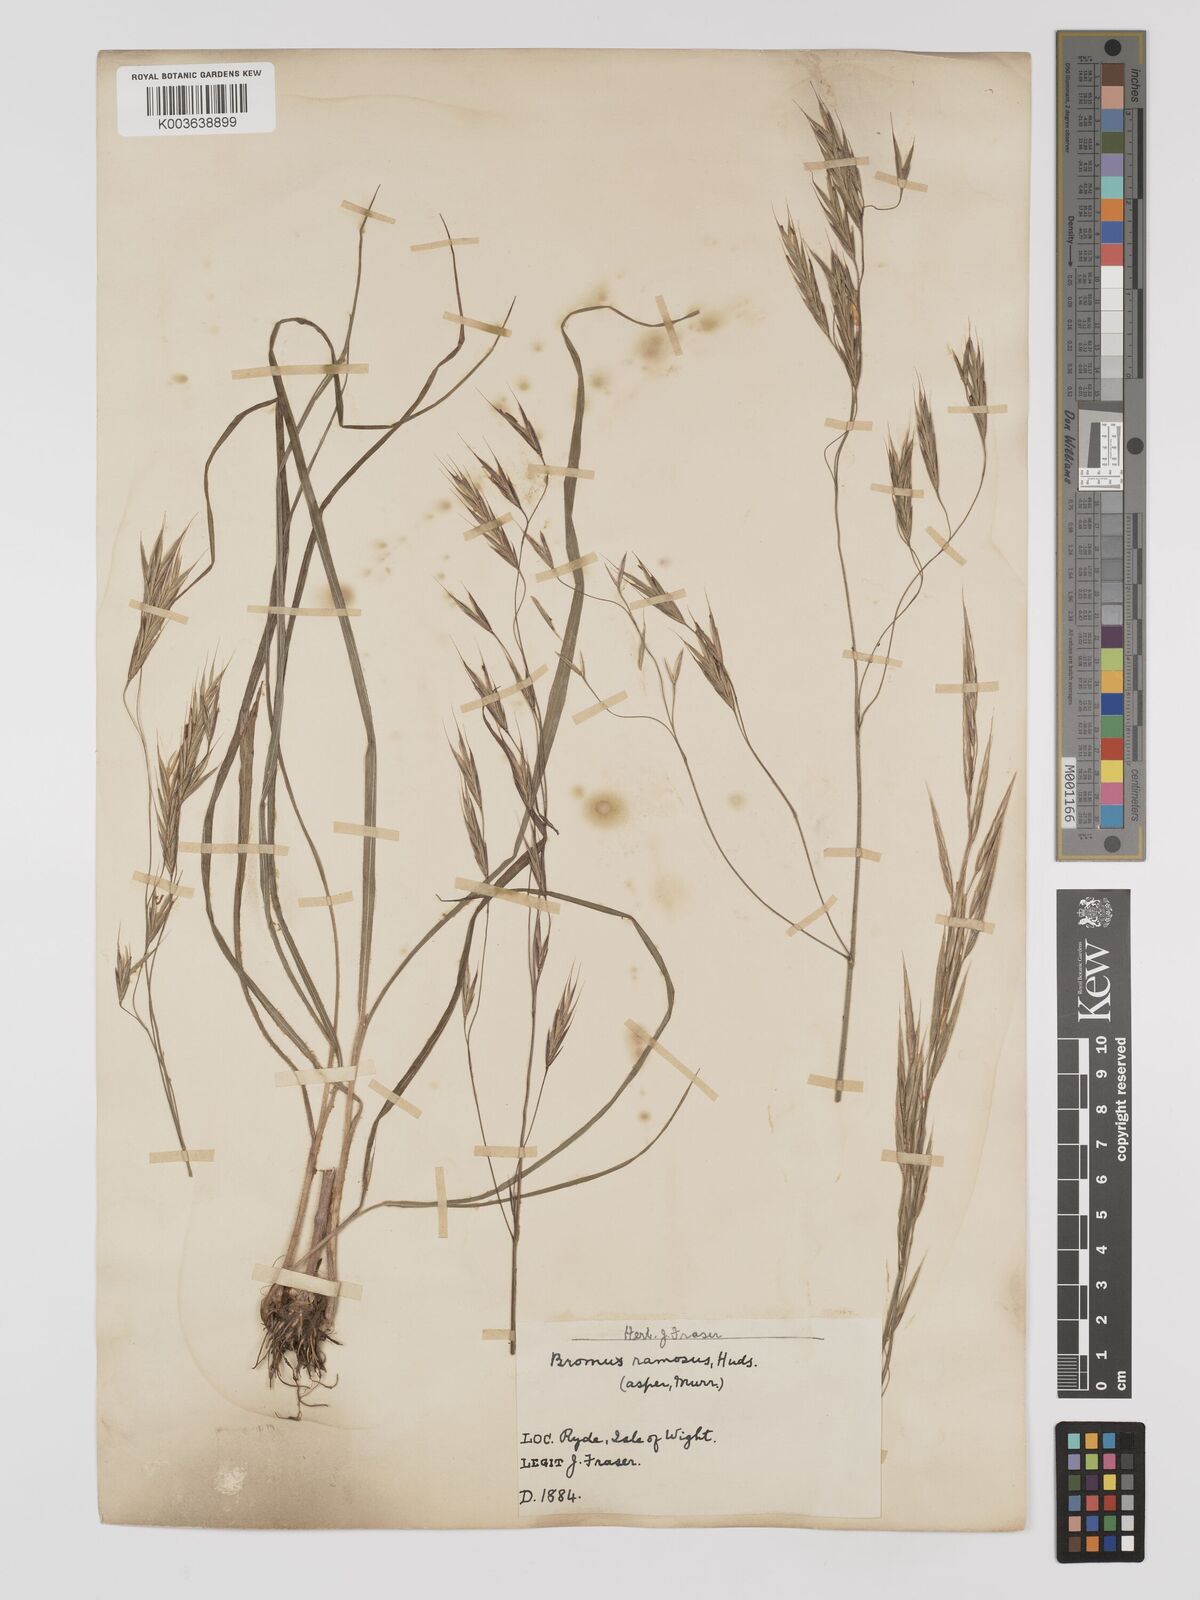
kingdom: Plantae
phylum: Tracheophyta
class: Liliopsida
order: Poales
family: Poaceae
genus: Bromus
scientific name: Bromus ramosus
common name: Hairy brome
